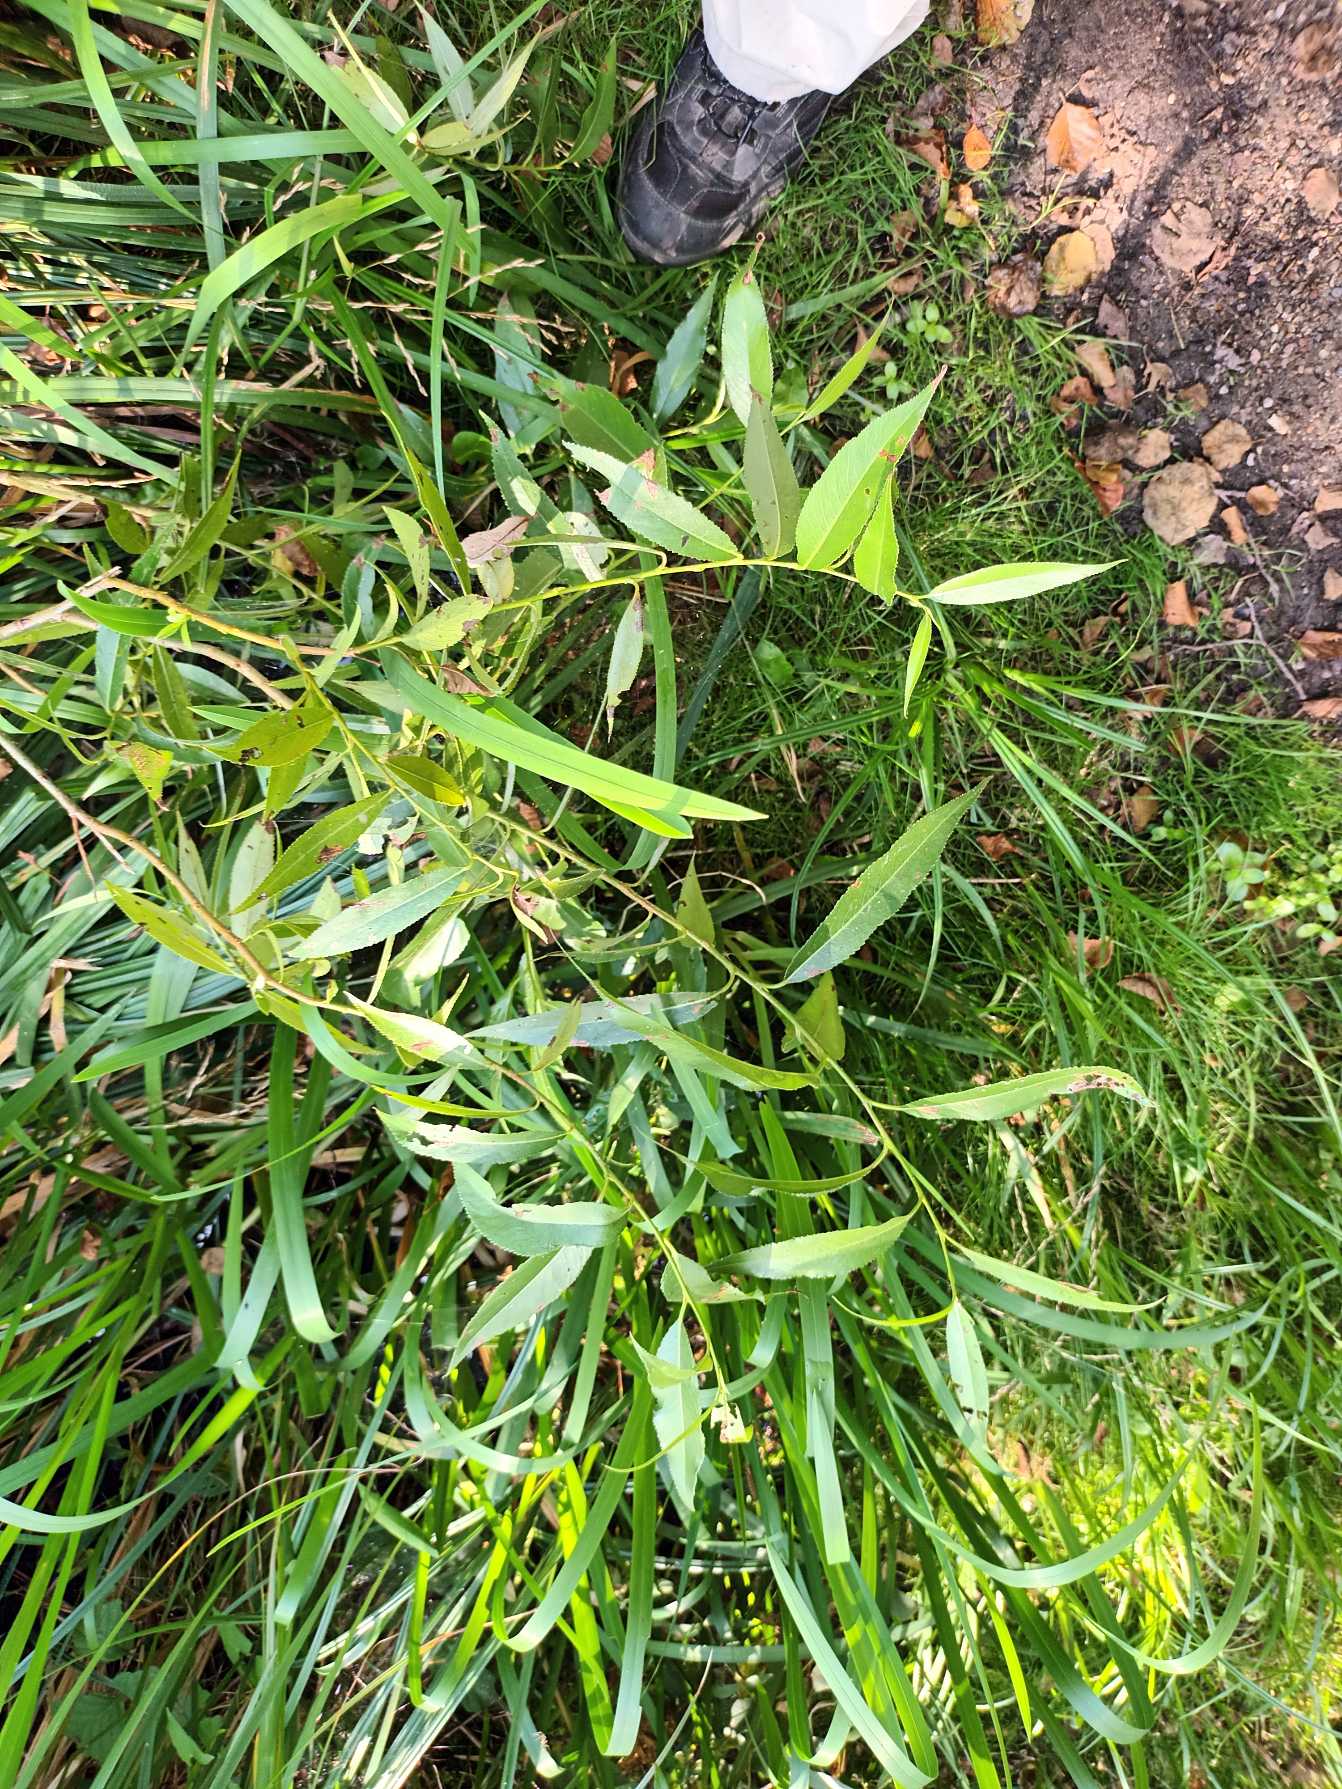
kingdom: Plantae
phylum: Tracheophyta
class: Magnoliopsida
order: Malpighiales
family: Salicaceae
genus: Salix
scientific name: Salix alba
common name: Skør-pil
